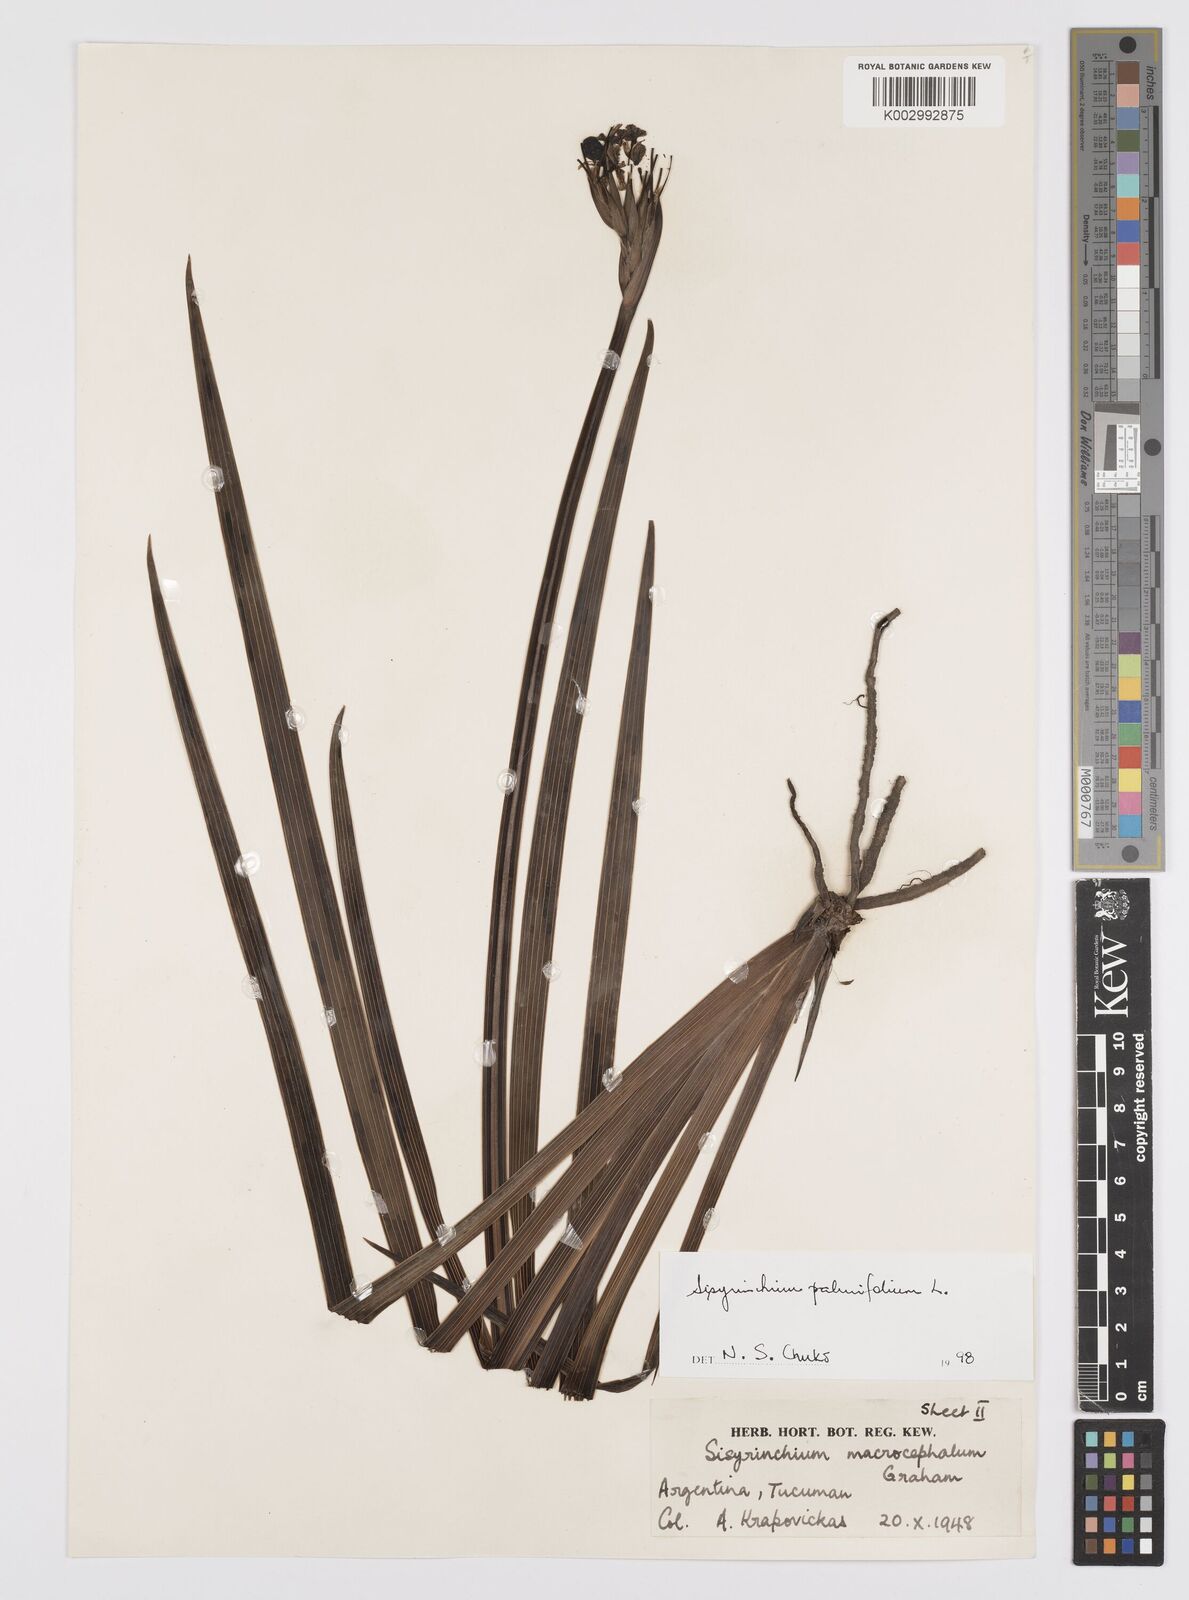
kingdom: Plantae
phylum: Tracheophyta
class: Liliopsida
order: Asparagales
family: Iridaceae
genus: Sisyrinchium
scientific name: Sisyrinchium palmifolium
